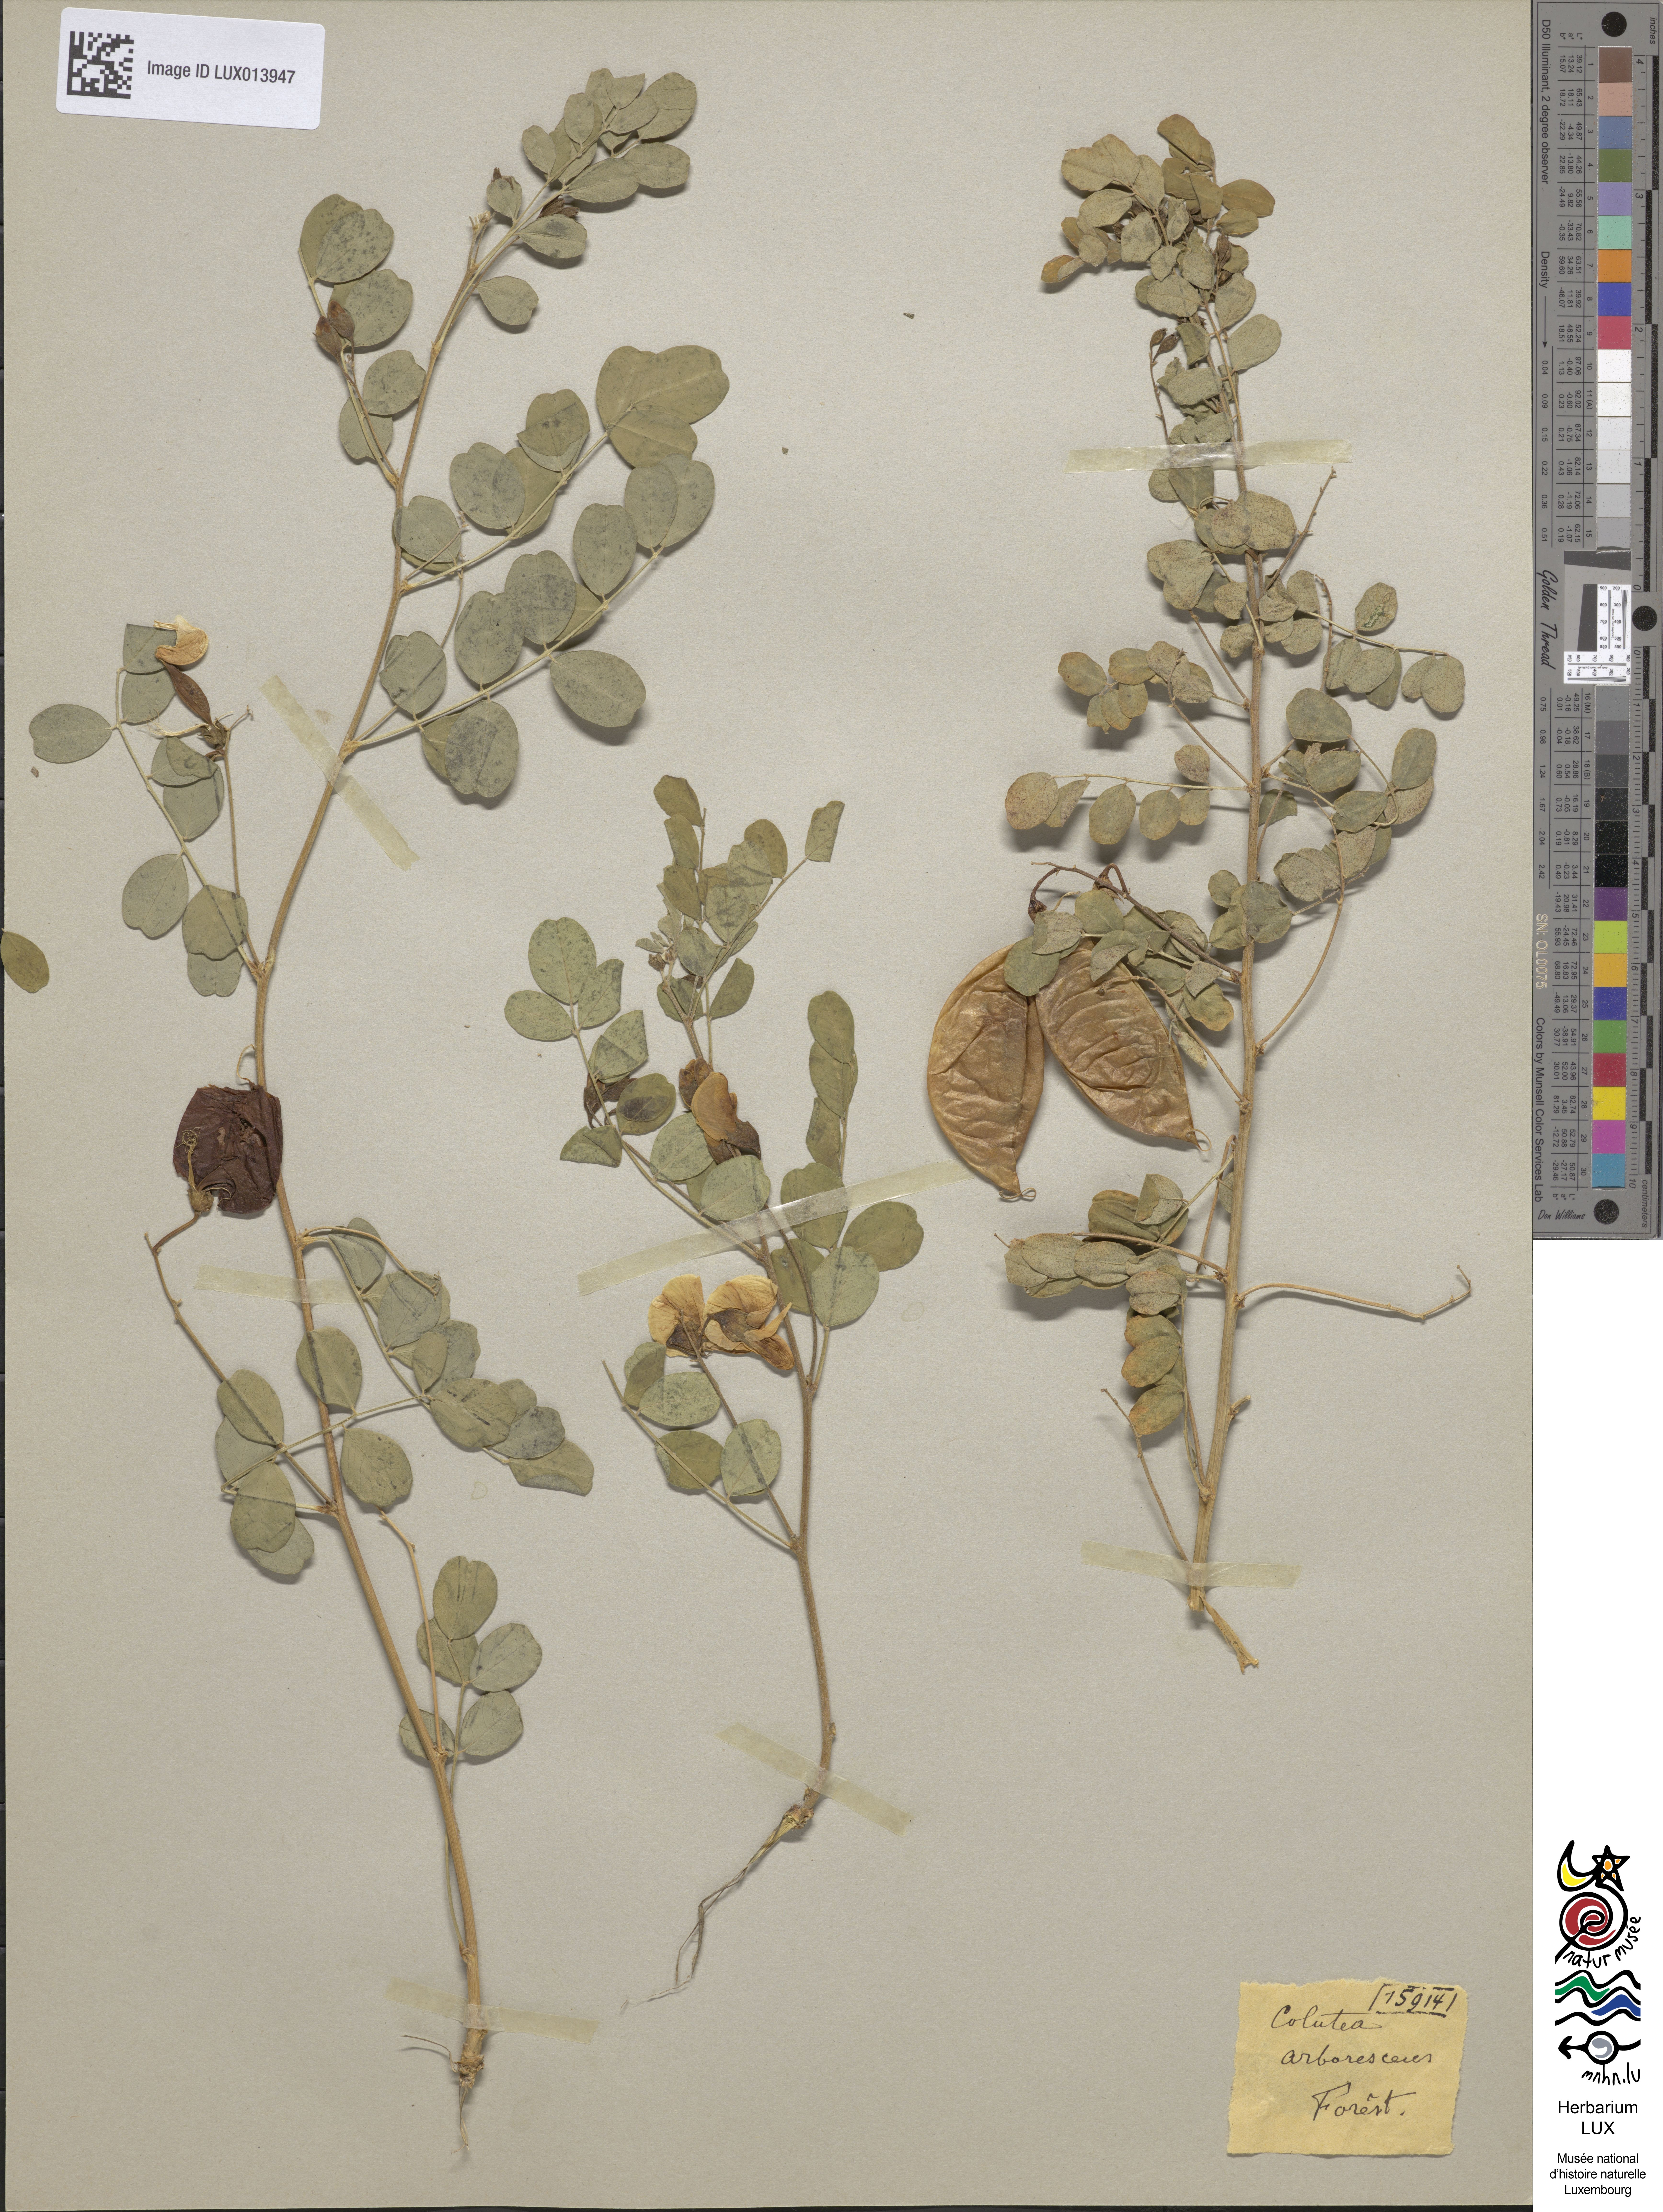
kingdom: Plantae
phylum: Tracheophyta
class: Magnoliopsida
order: Fabales
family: Fabaceae
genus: Colutea
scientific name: Colutea arborescens
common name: Bladder-senna
